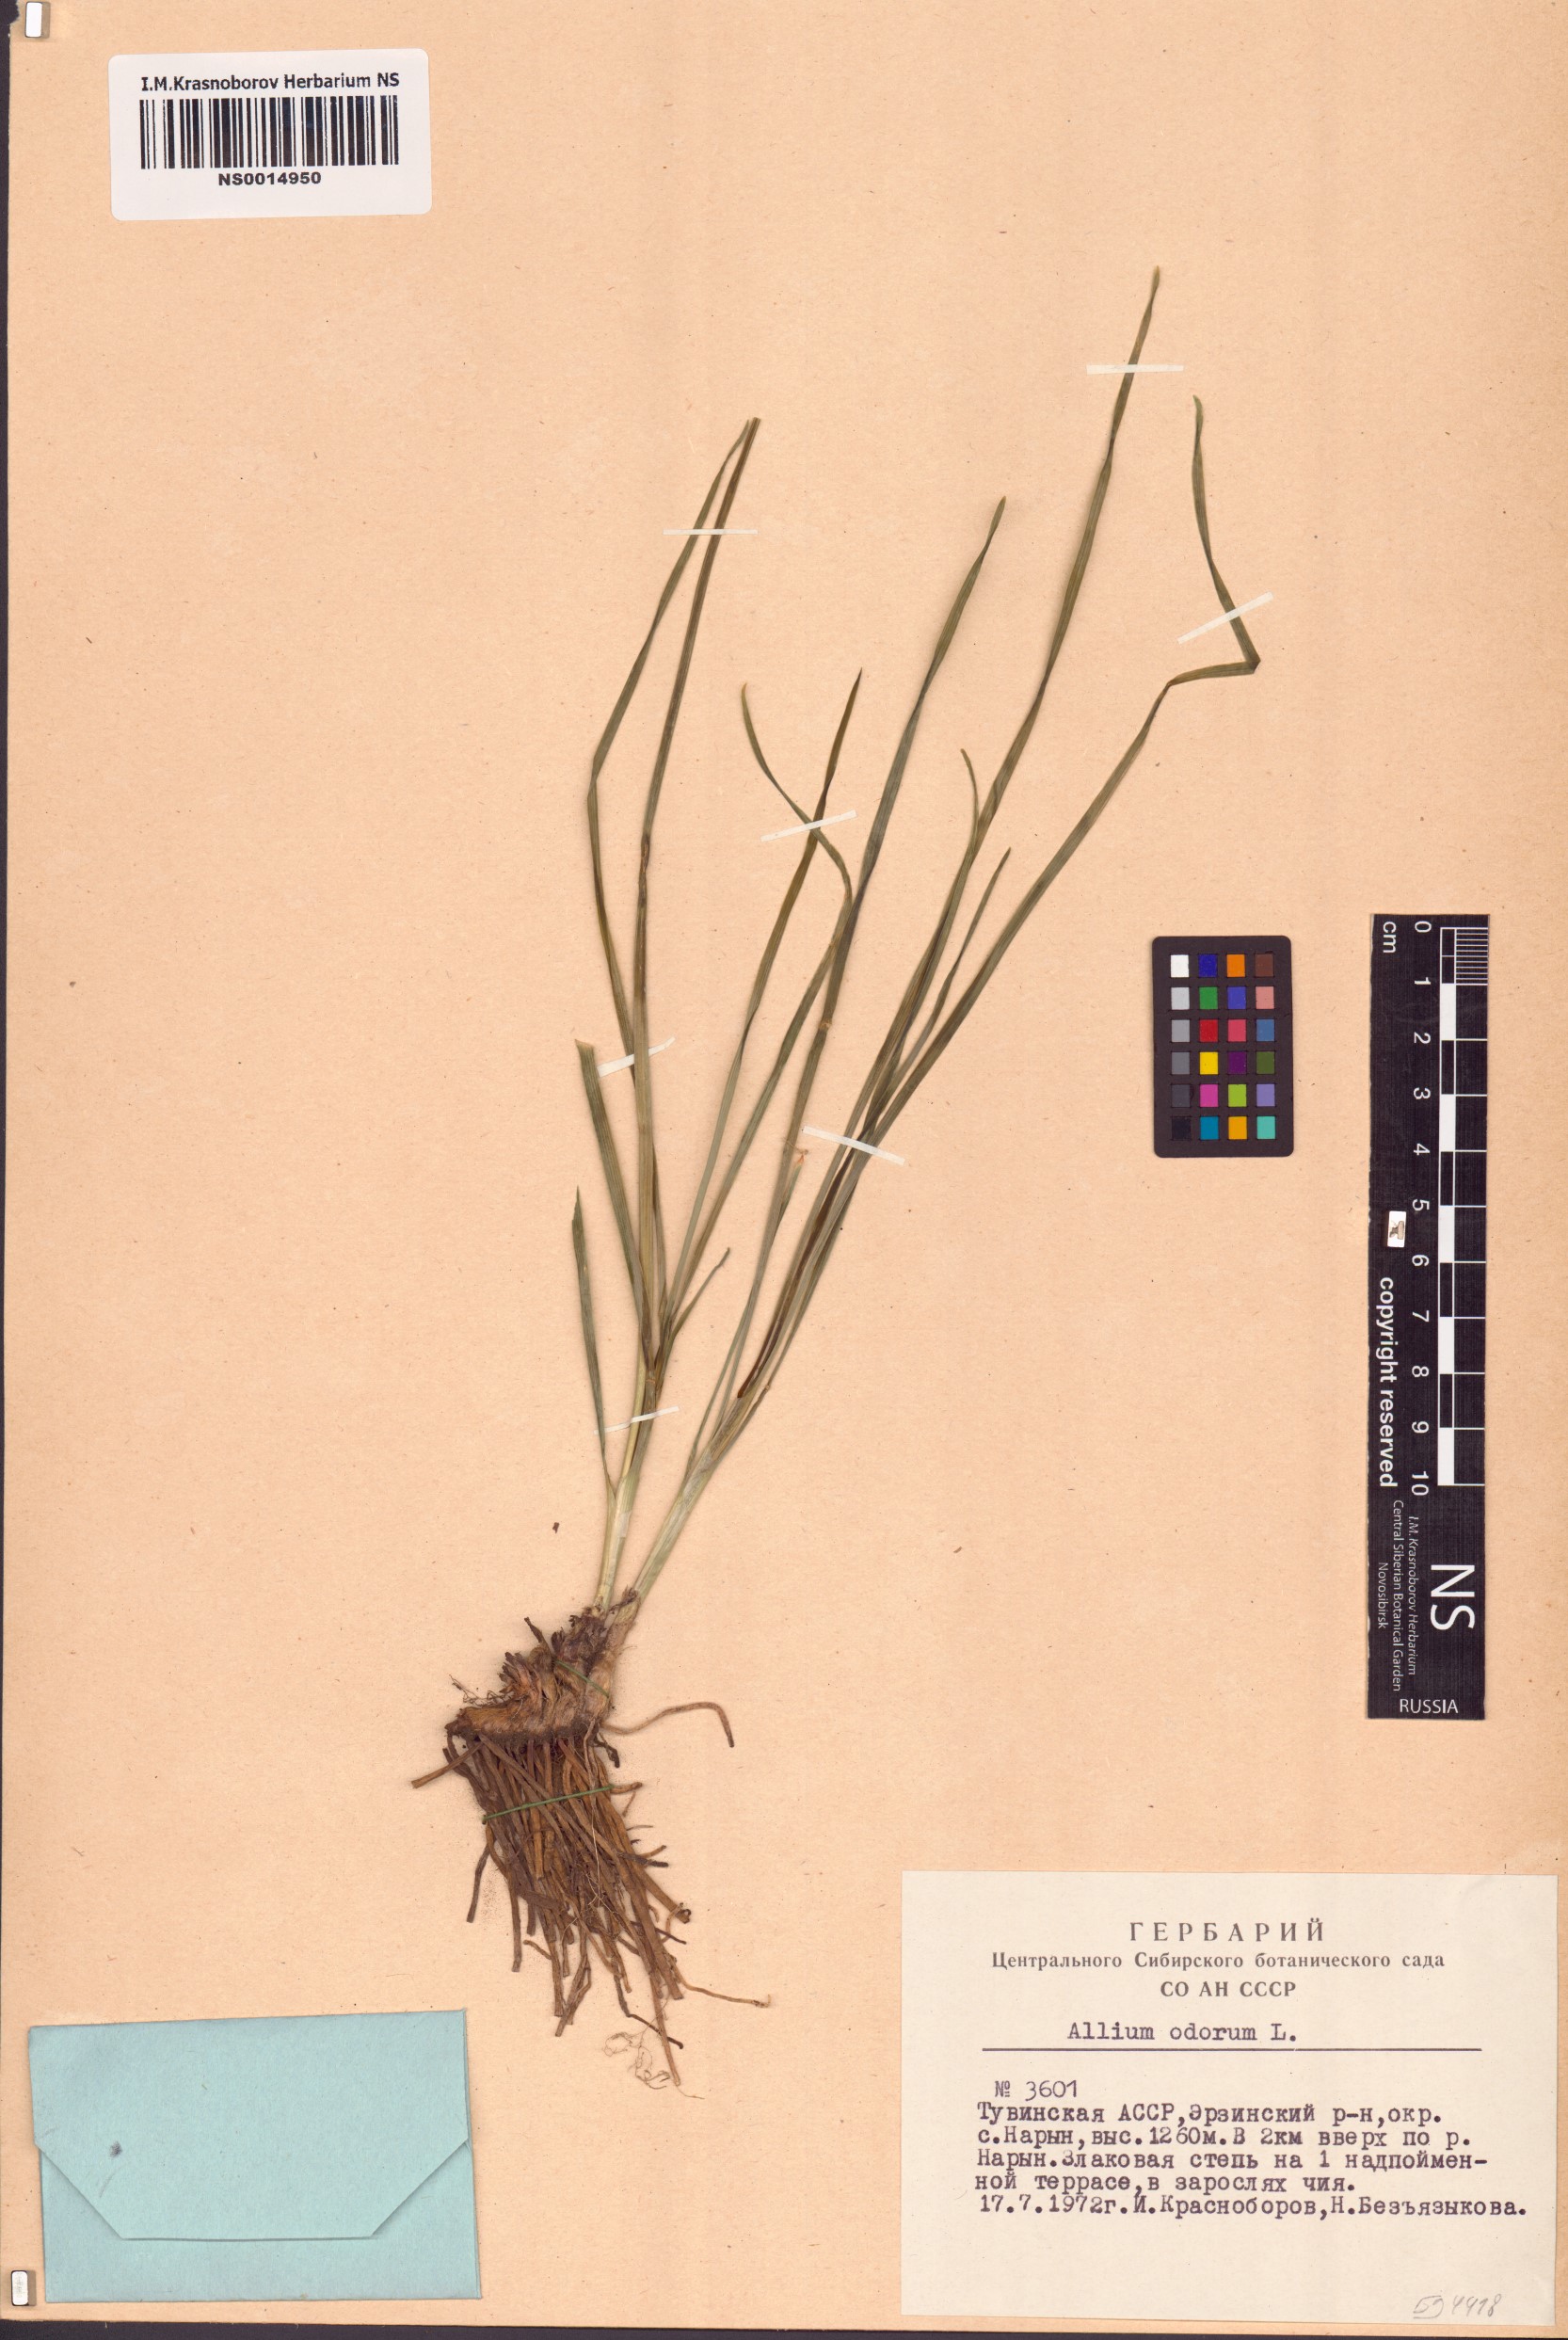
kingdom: Plantae
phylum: Tracheophyta
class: Liliopsida
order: Asparagales
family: Amaryllidaceae
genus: Allium
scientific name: Allium ramosum
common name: Fragrant garlic
